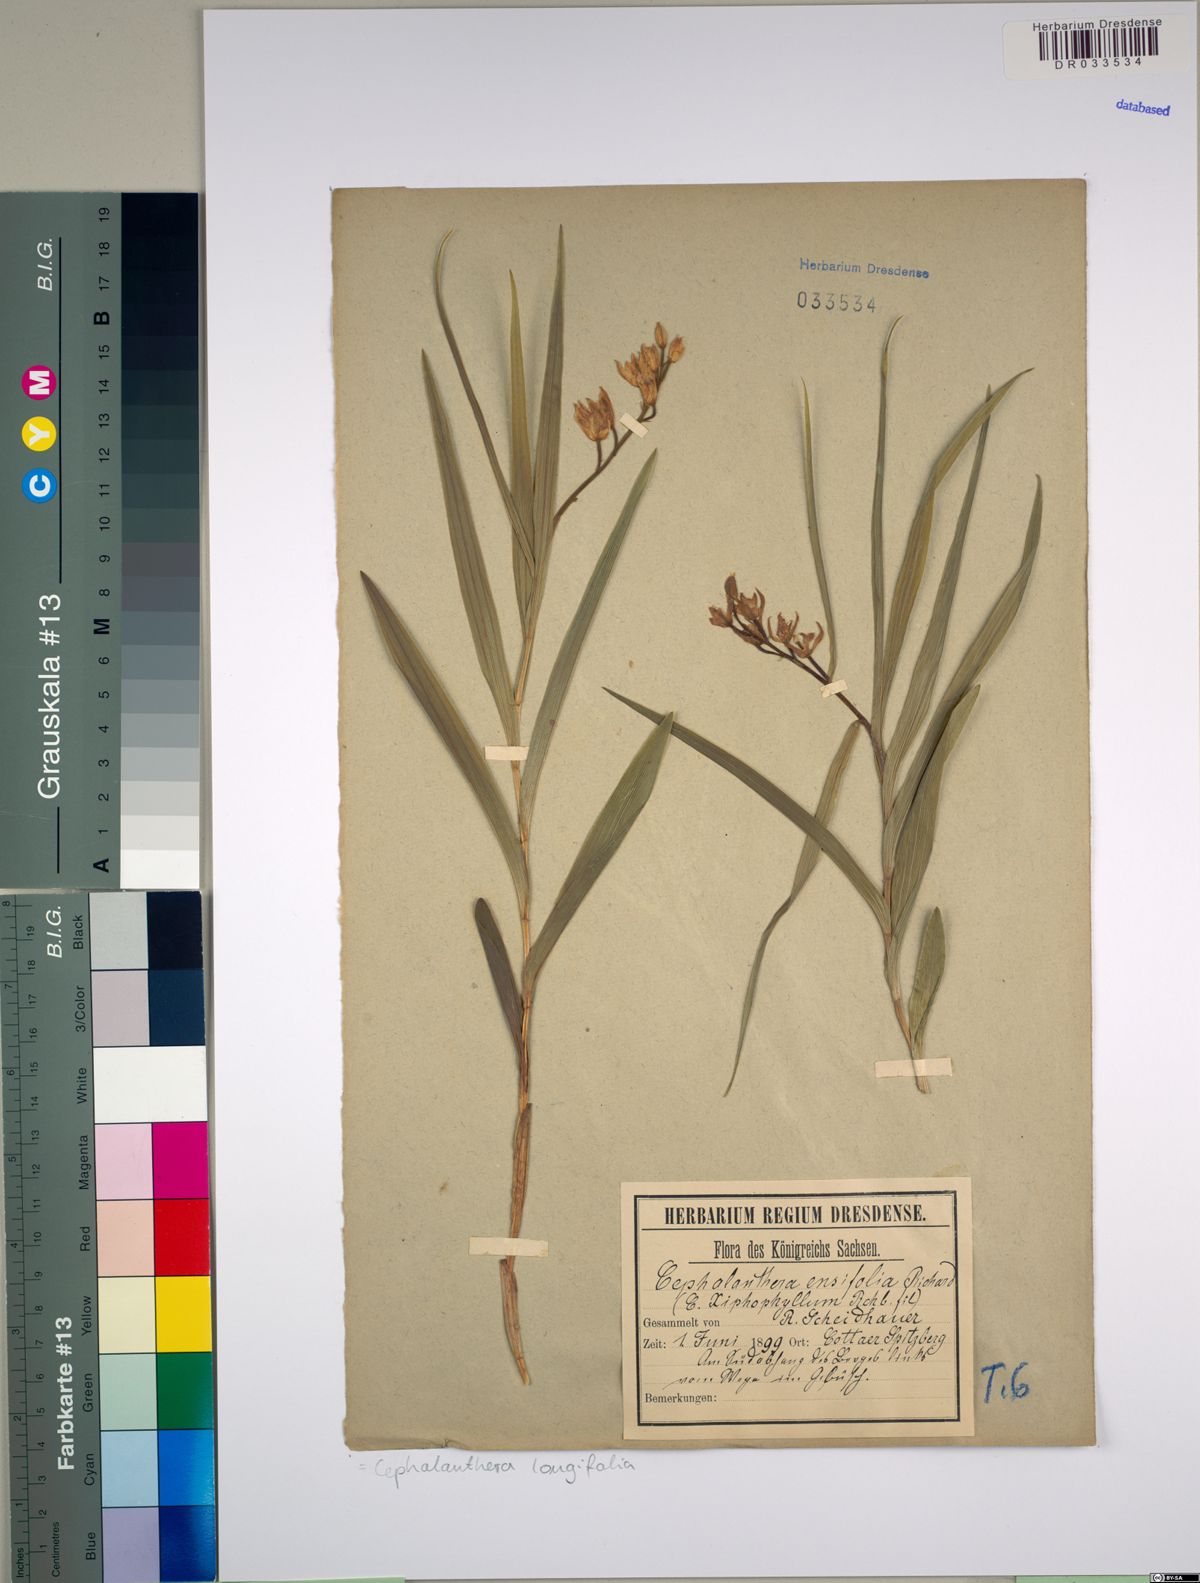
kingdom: Plantae
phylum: Tracheophyta
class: Liliopsida
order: Asparagales
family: Orchidaceae
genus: Cephalanthera
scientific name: Cephalanthera longifolia
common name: Narrow-leaved helleborine
